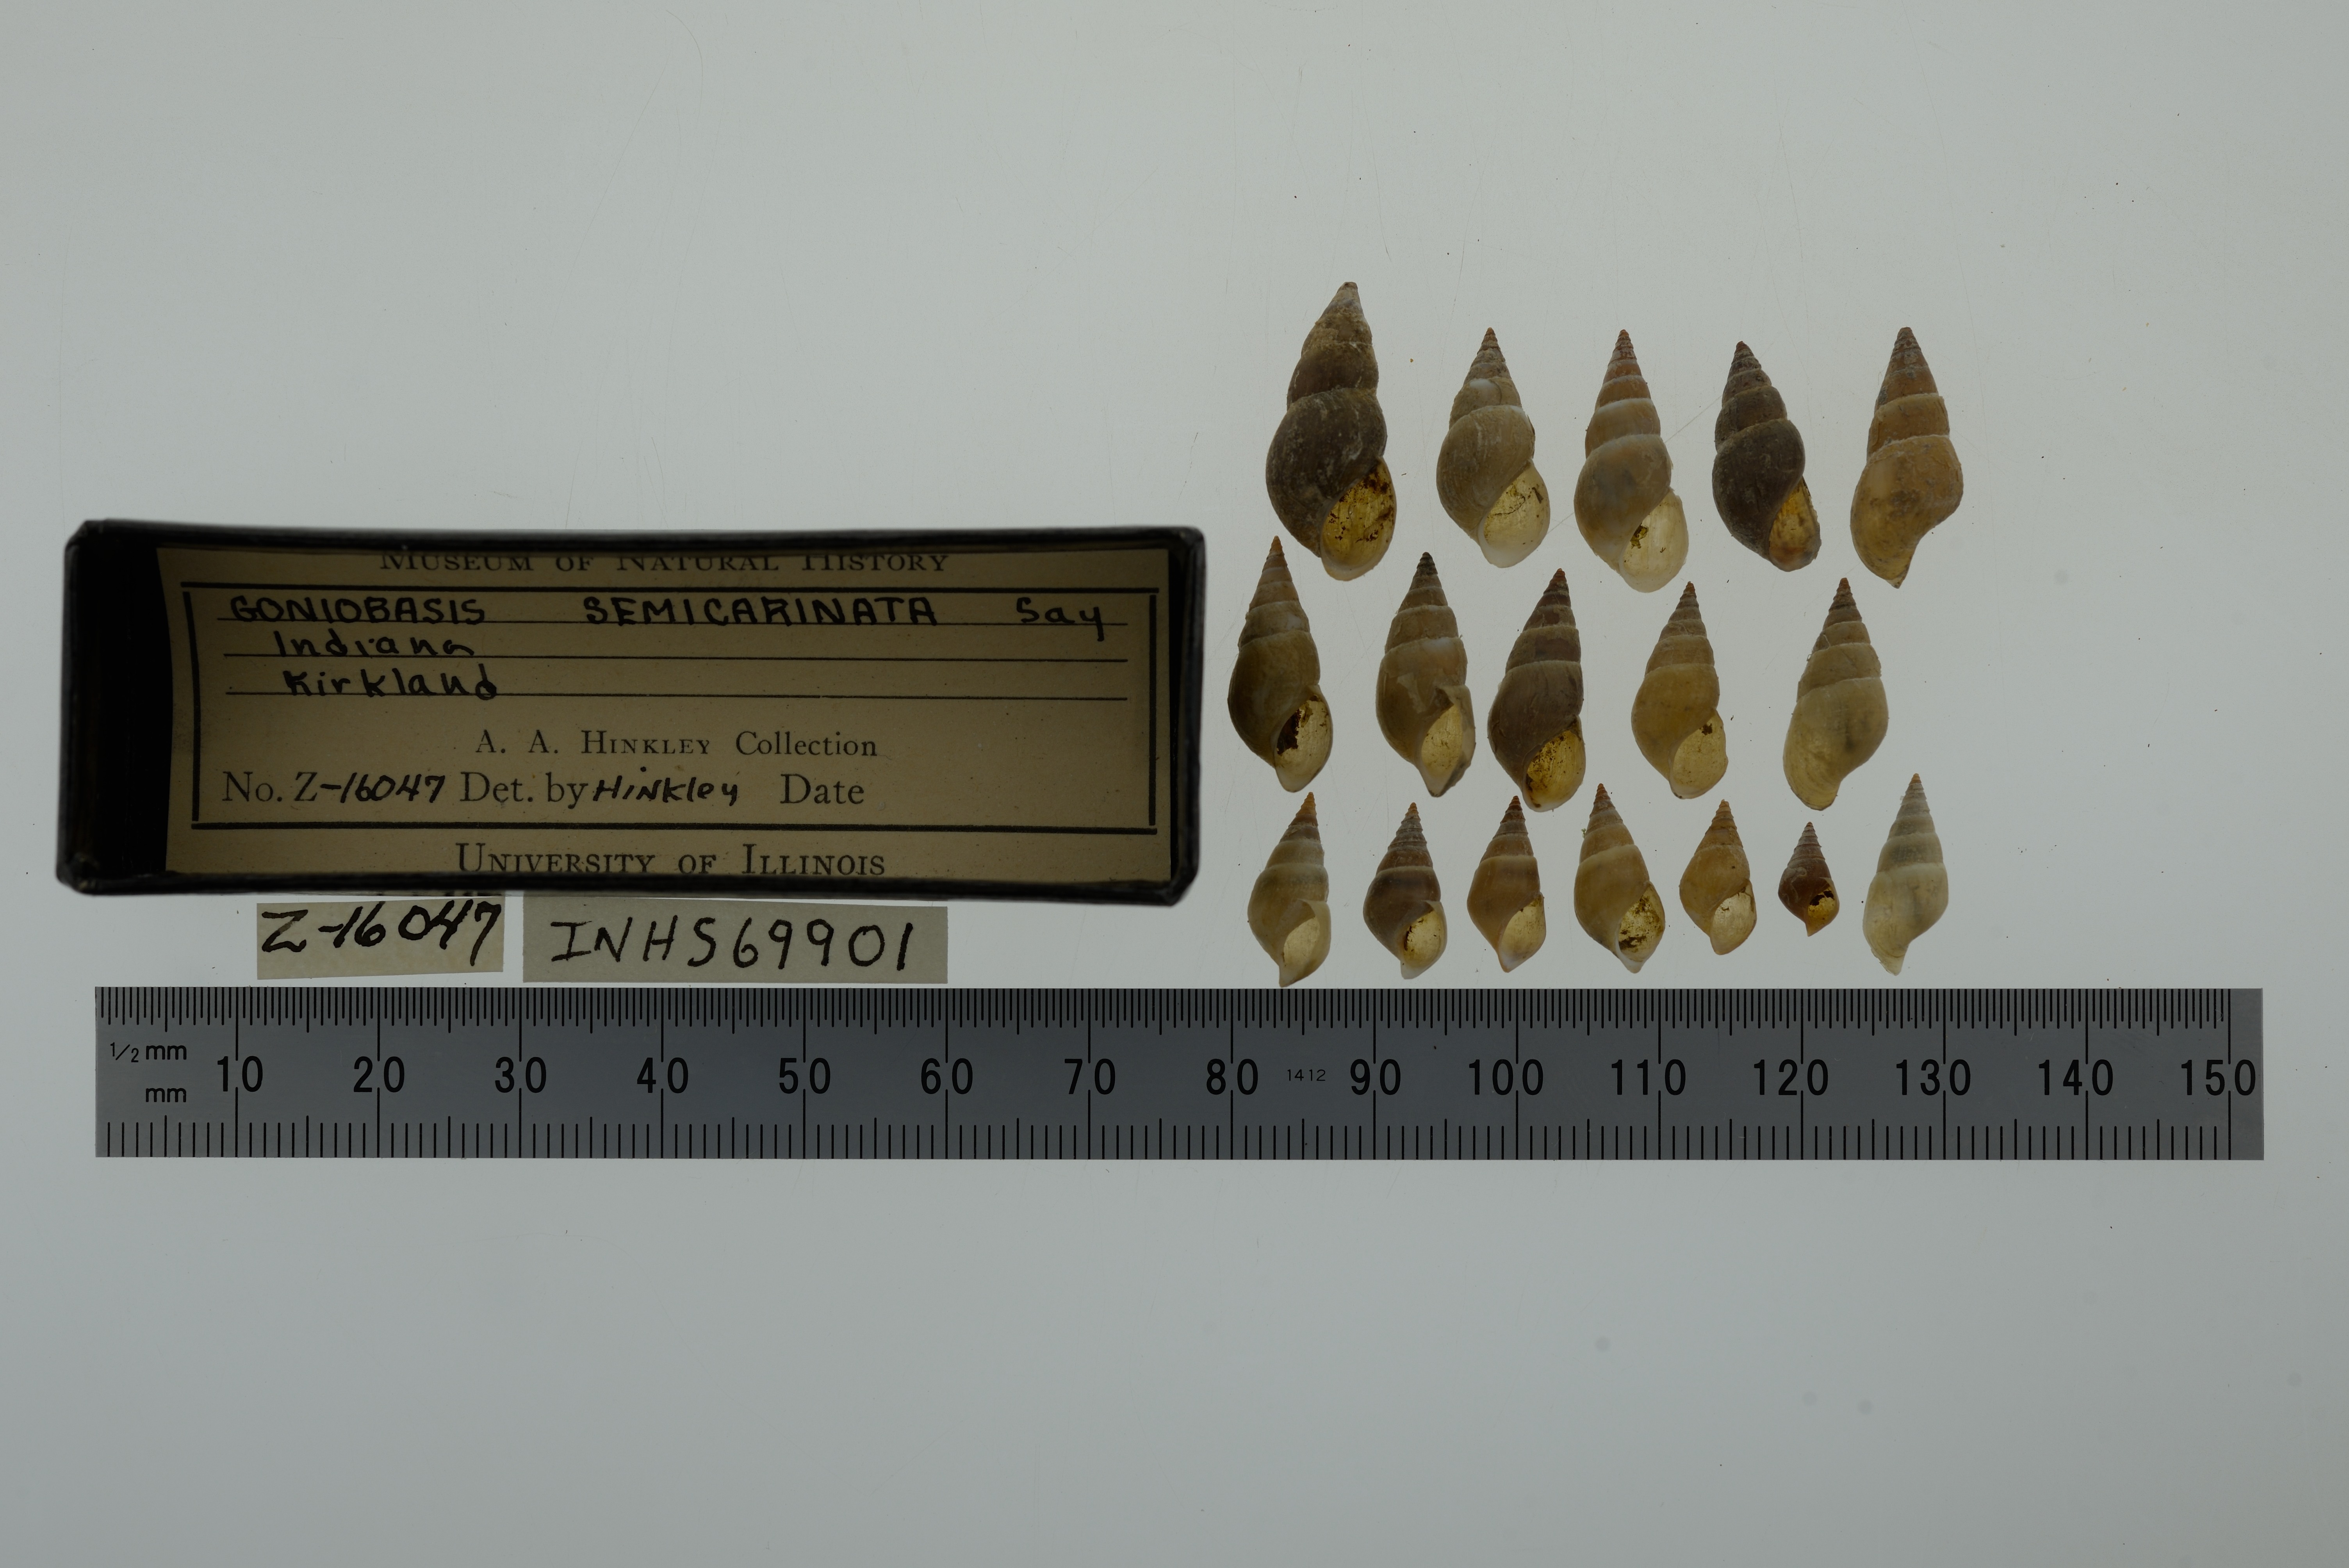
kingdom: Animalia
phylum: Mollusca
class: Gastropoda
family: Pleuroceridae
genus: Elimia
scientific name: Elimia semicarinata
